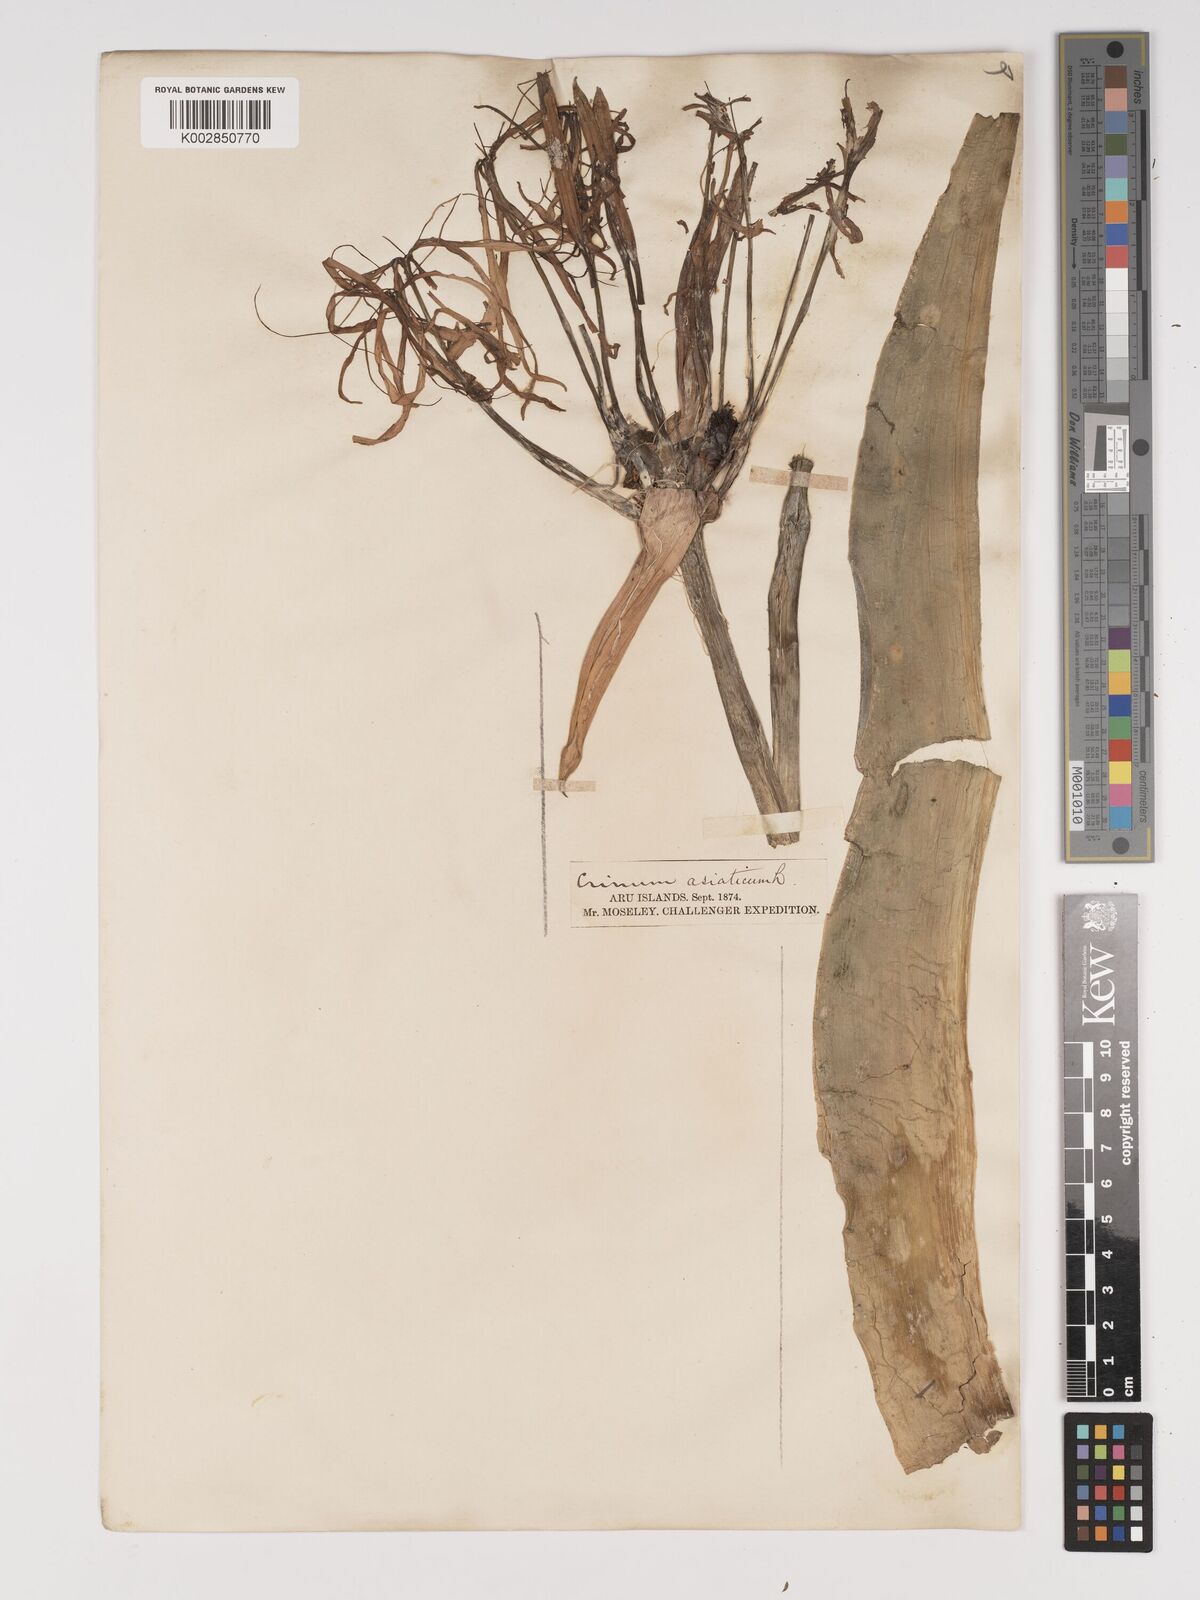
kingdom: Plantae
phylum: Tracheophyta
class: Liliopsida
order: Asparagales
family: Amaryllidaceae
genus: Crinum
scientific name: Crinum asiaticum
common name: Poisonbulb
